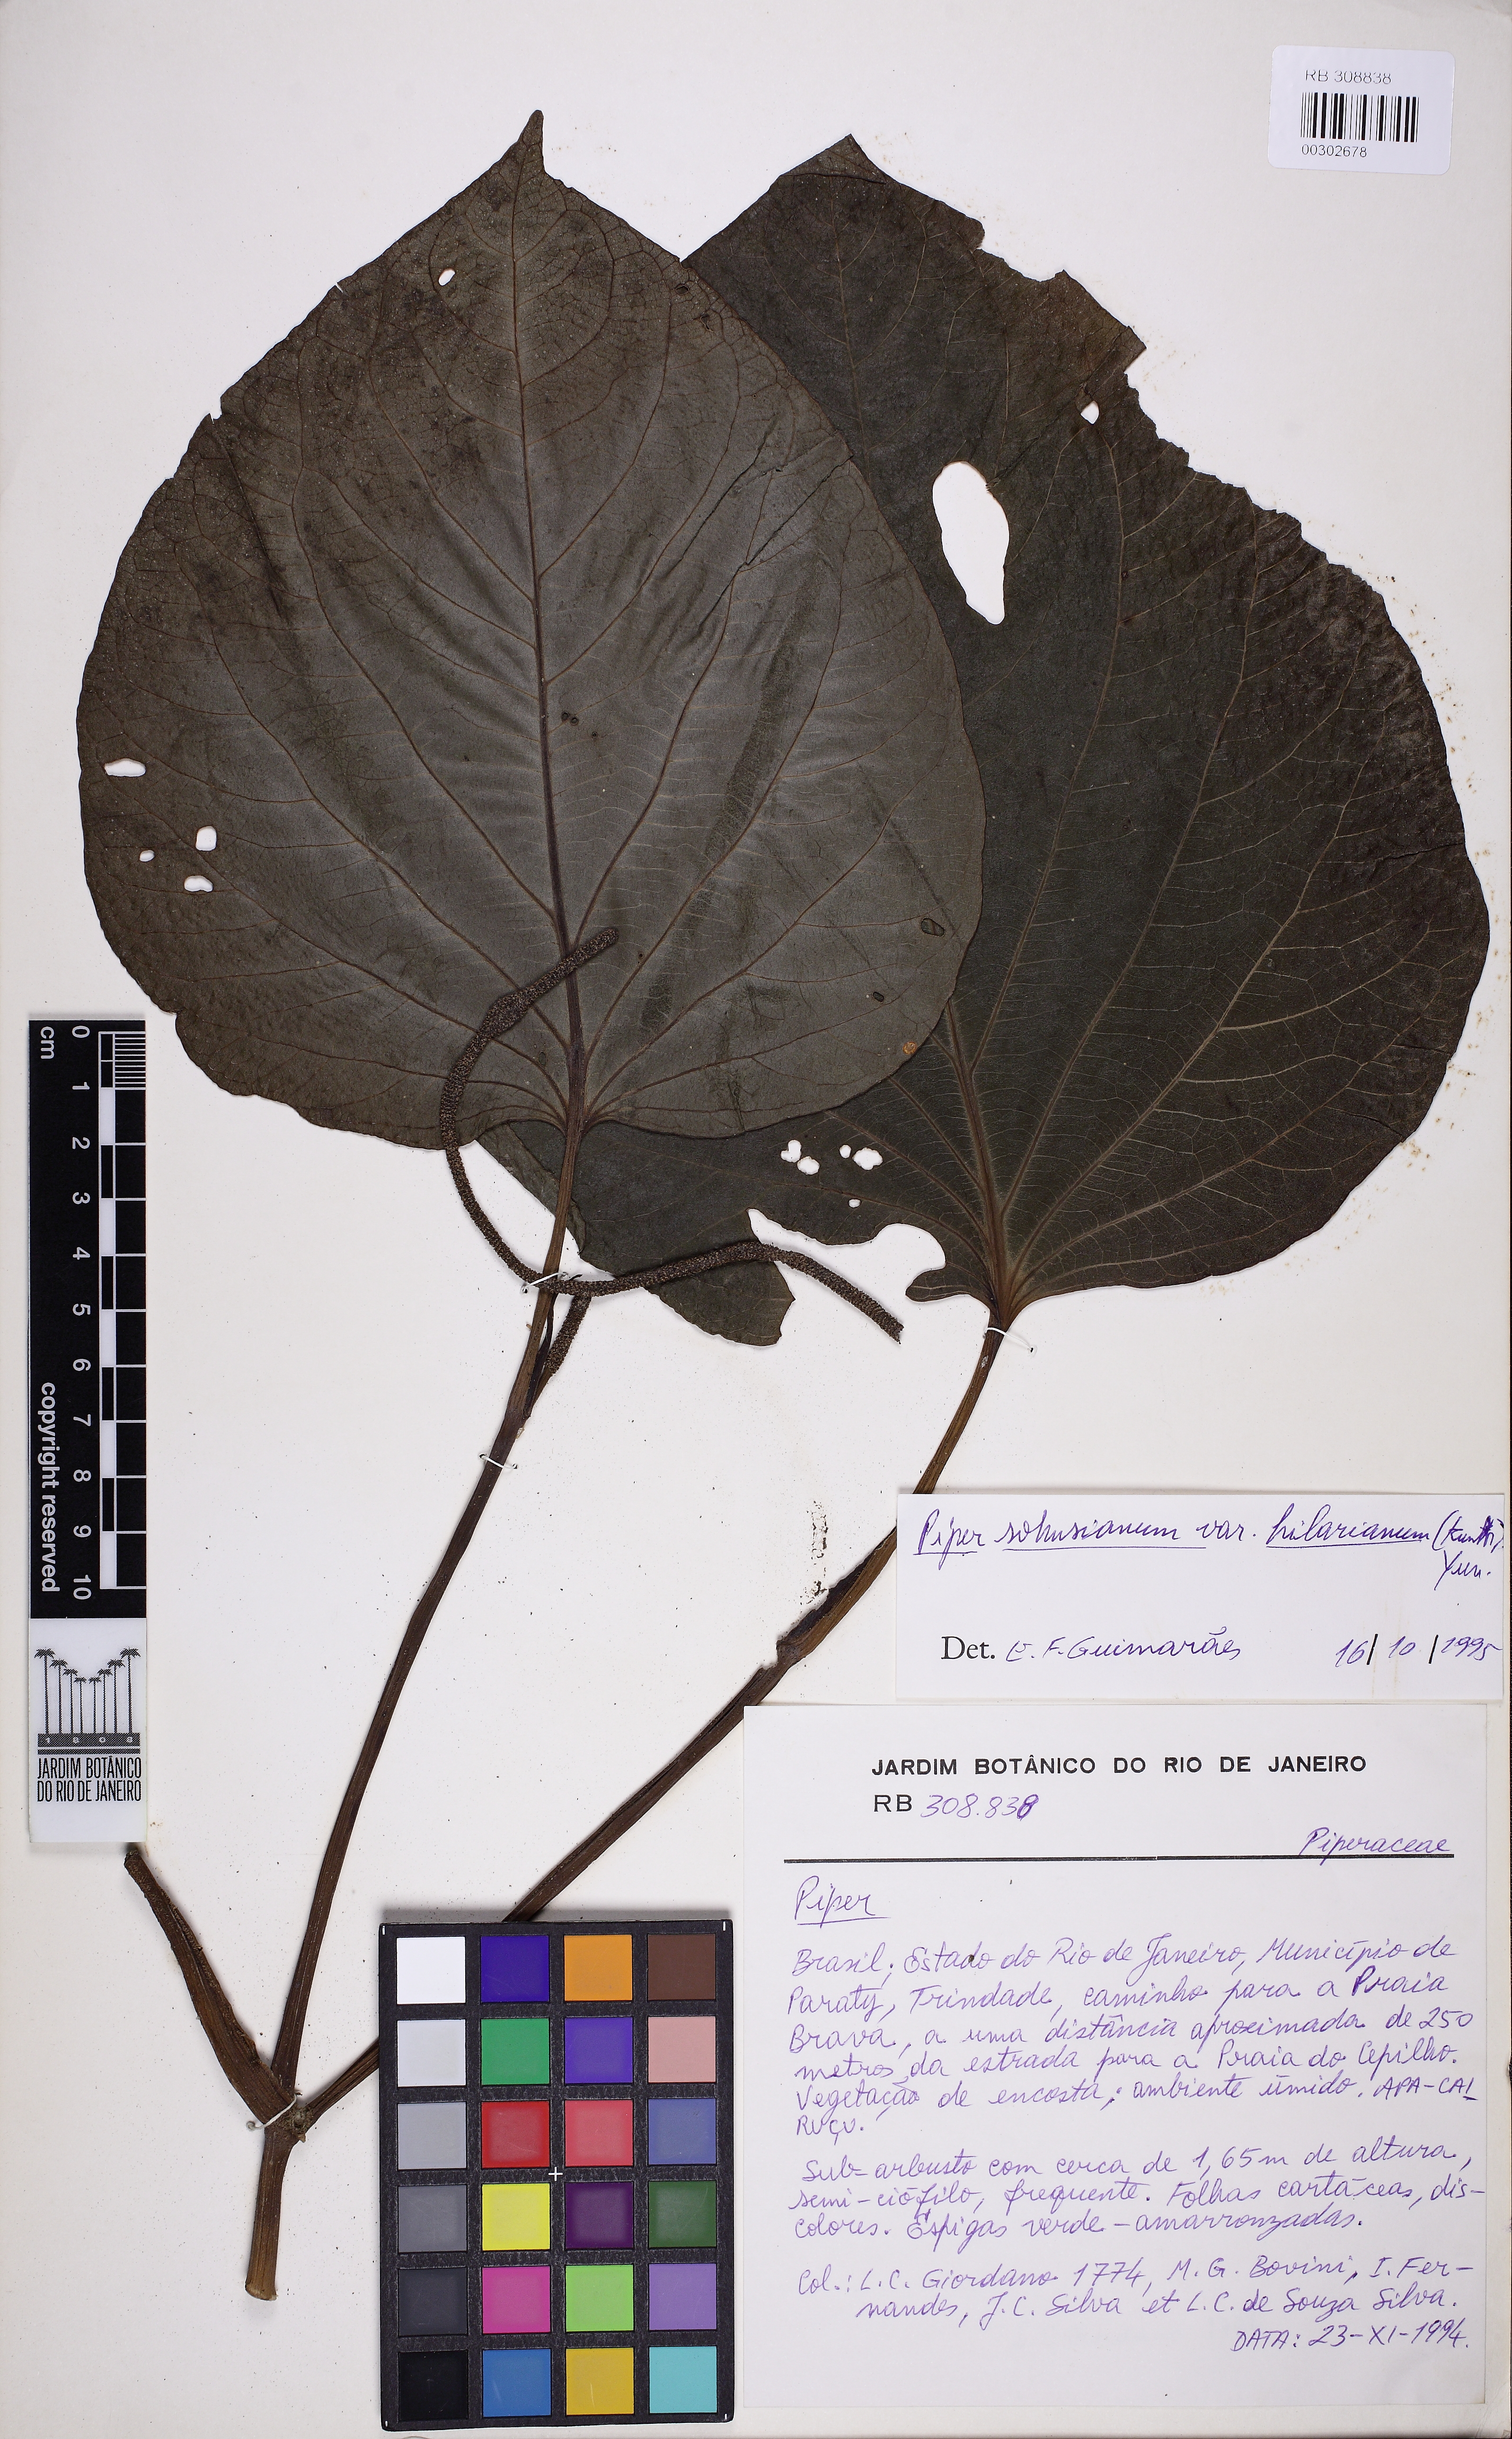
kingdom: Plantae
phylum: Tracheophyta
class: Magnoliopsida
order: Piperales
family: Piperaceae
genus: Piper
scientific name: Piper solmsianum
